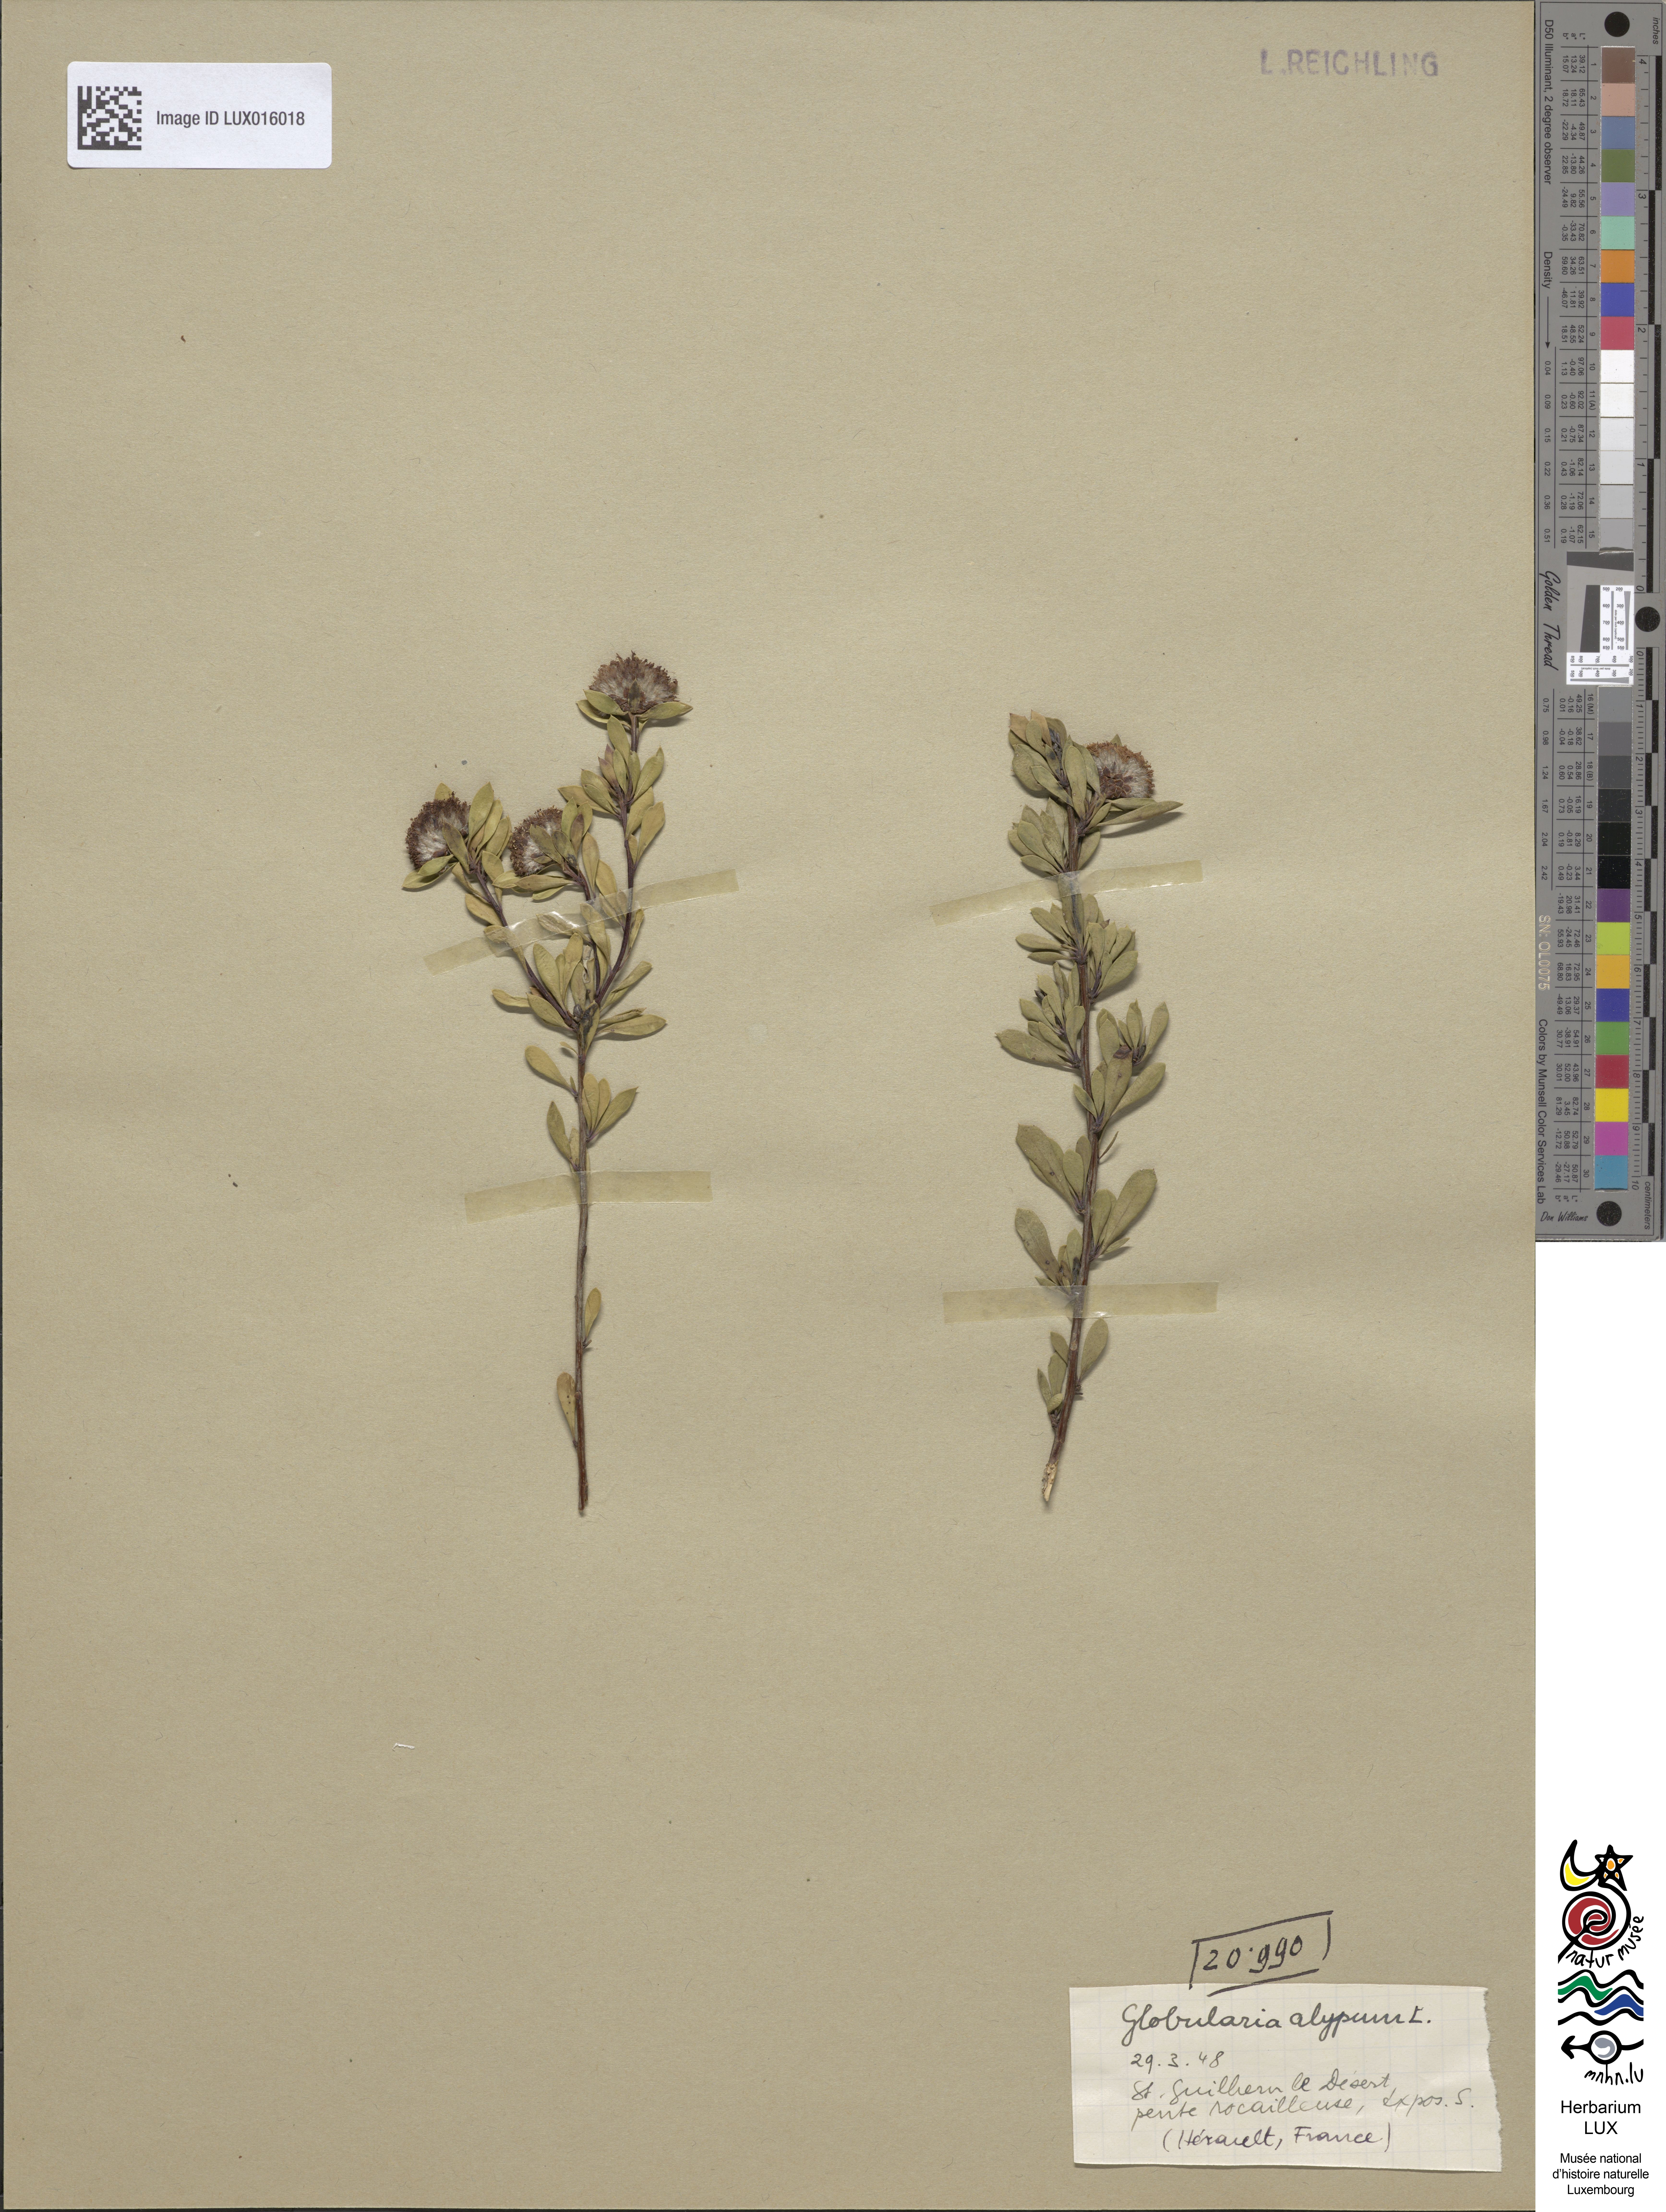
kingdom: Plantae
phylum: Tracheophyta
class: Magnoliopsida
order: Lamiales
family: Plantaginaceae
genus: Globularia
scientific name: Globularia alypum
